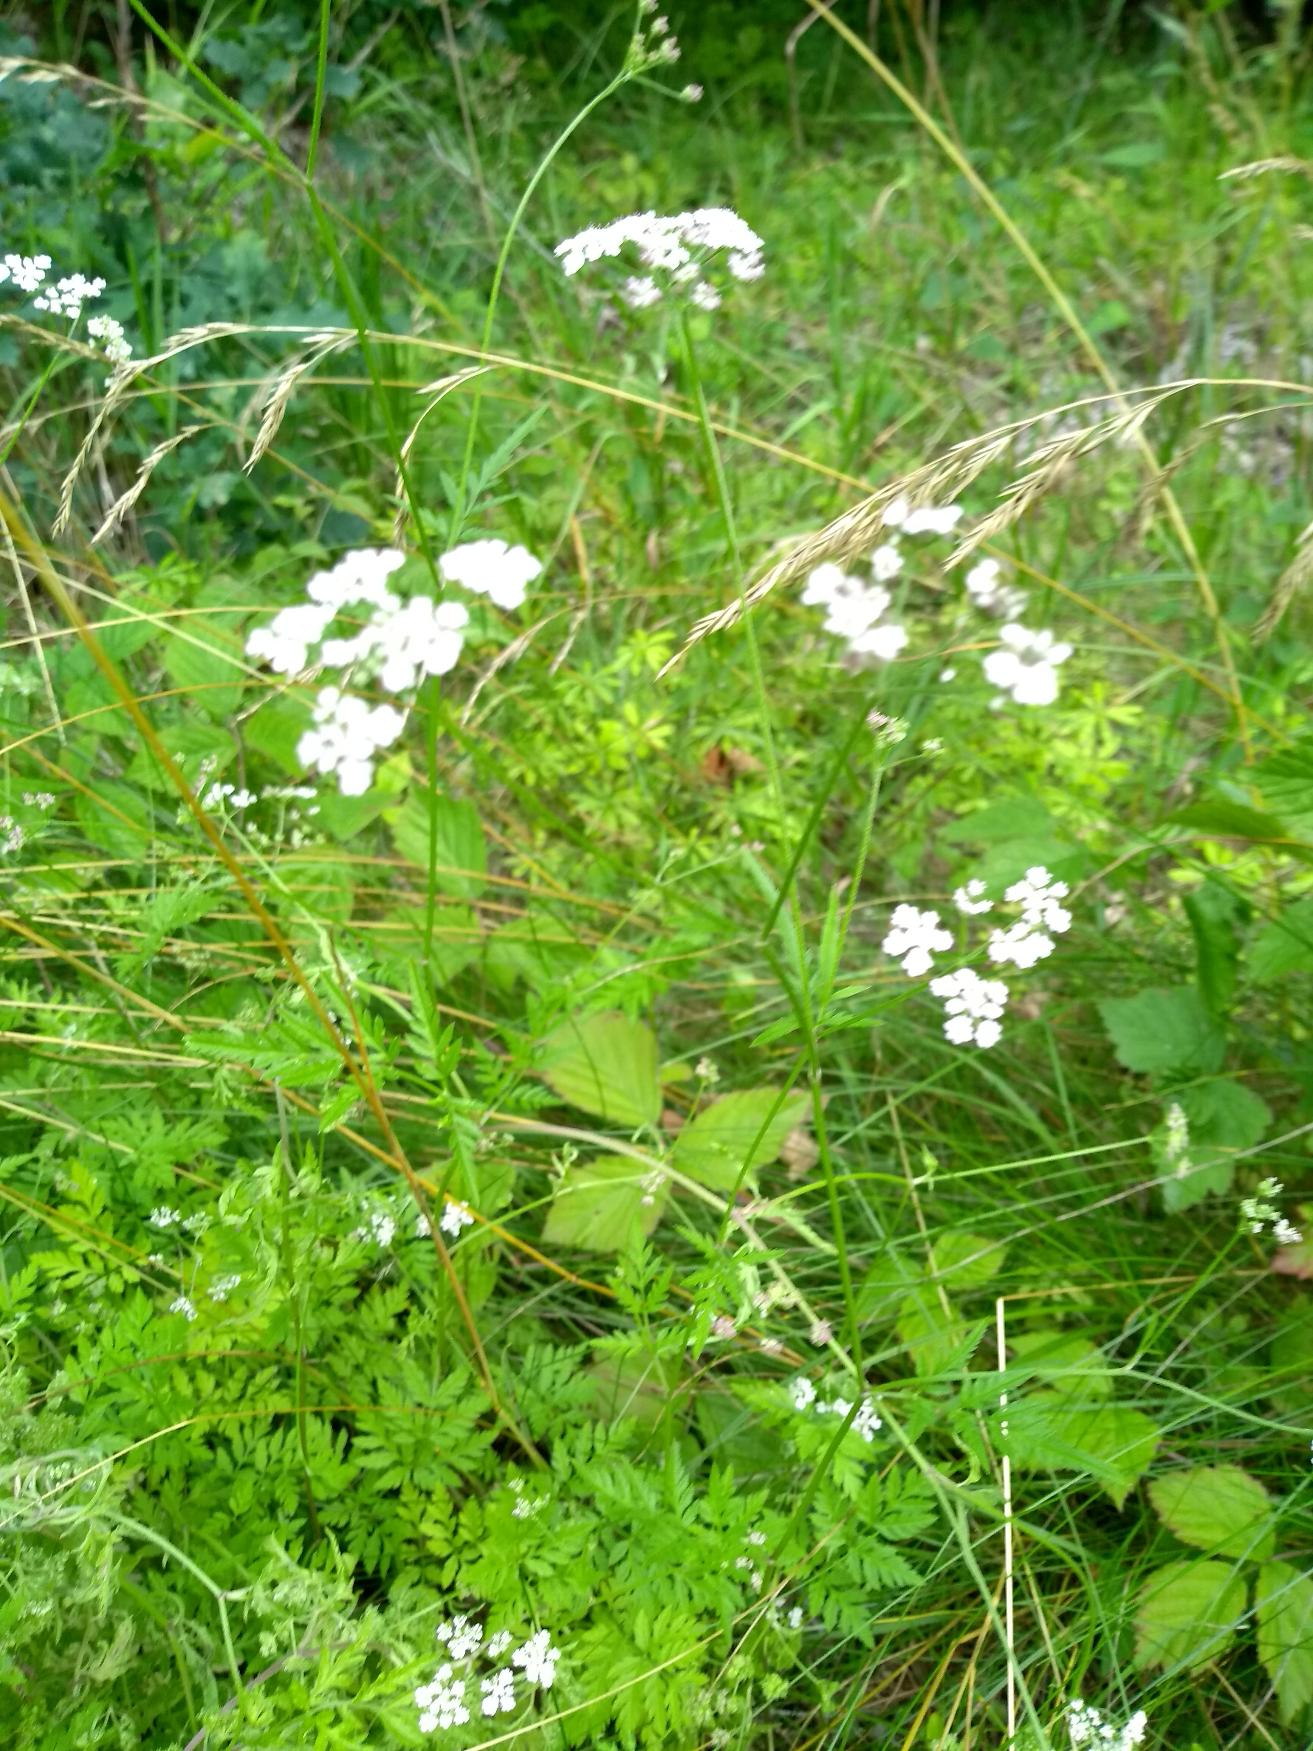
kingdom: Plantae
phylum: Tracheophyta
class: Magnoliopsida
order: Apiales
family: Apiaceae
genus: Torilis
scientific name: Torilis japonica
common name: Hvas randfrø
